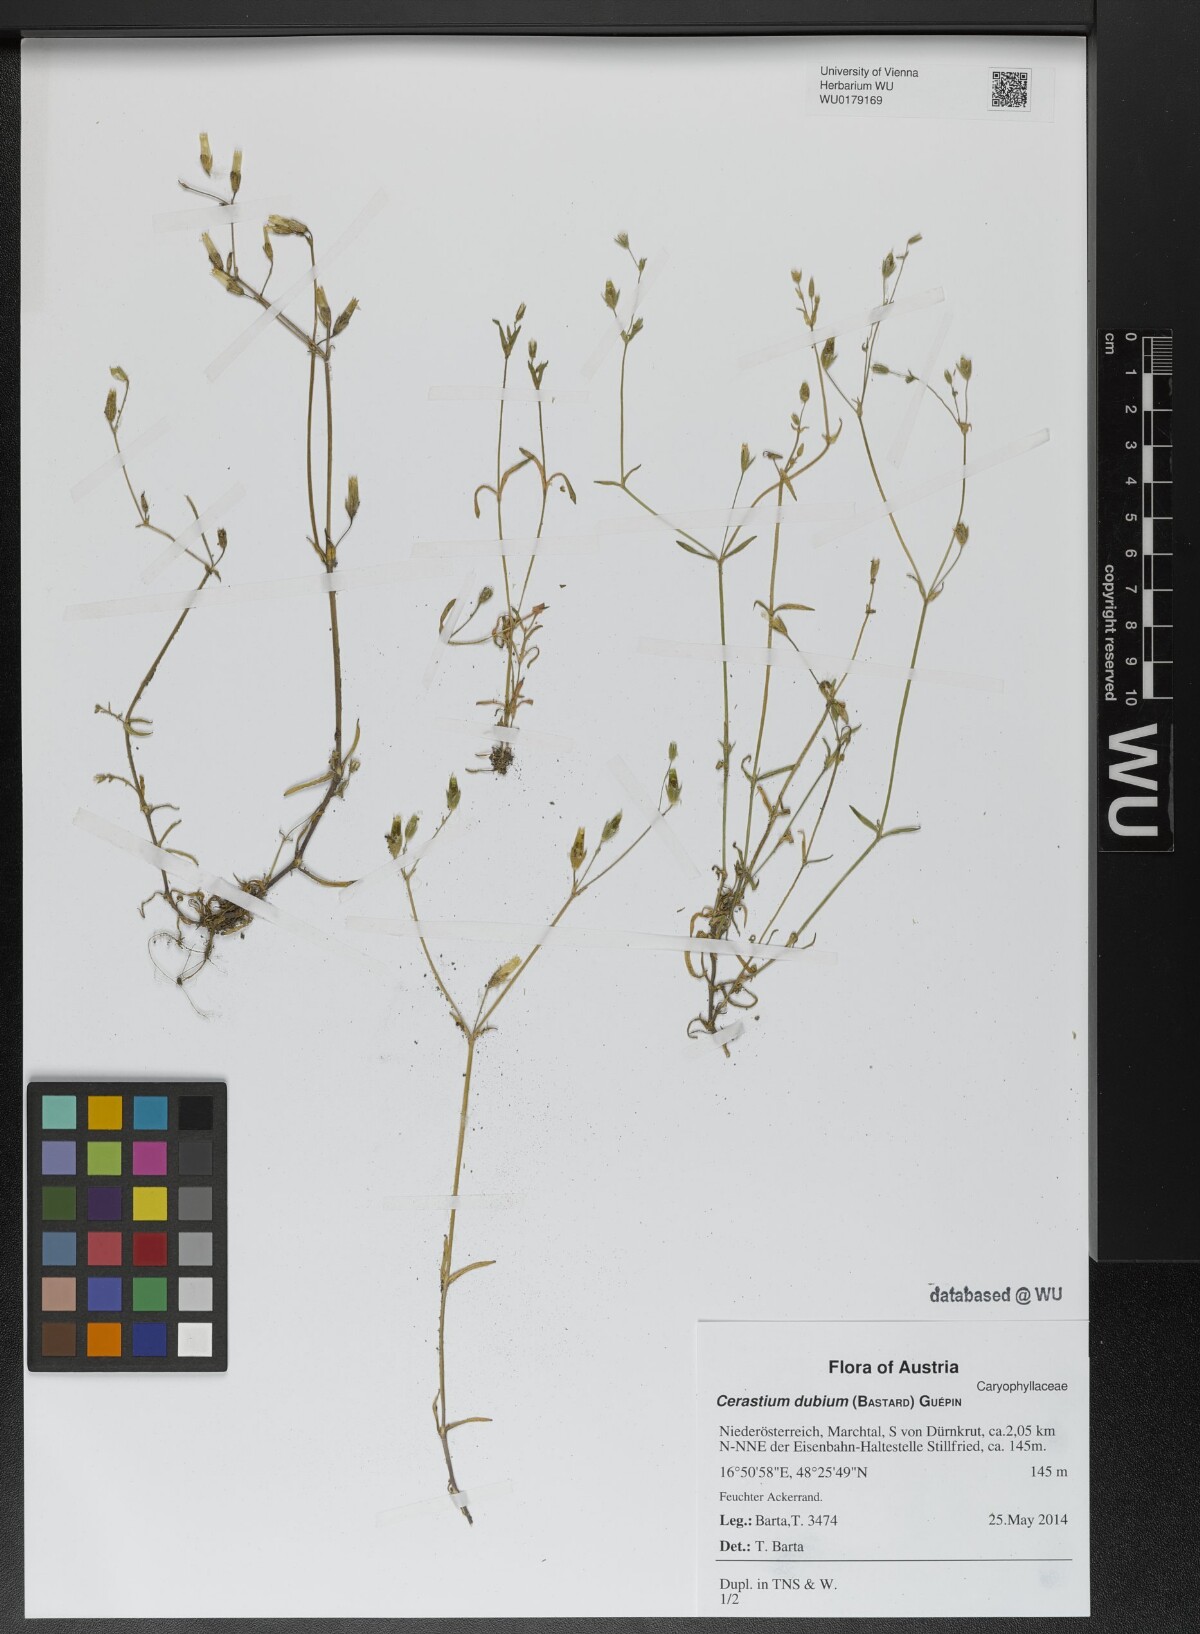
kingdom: Plantae
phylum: Tracheophyta
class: Magnoliopsida
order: Caryophyllales
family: Caryophyllaceae
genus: Dichodon
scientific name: Dichodon viscidum
